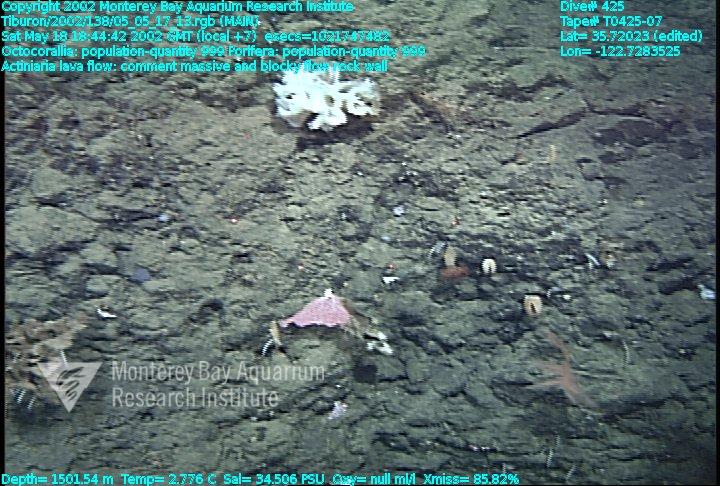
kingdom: Animalia
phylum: Porifera
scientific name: Porifera
